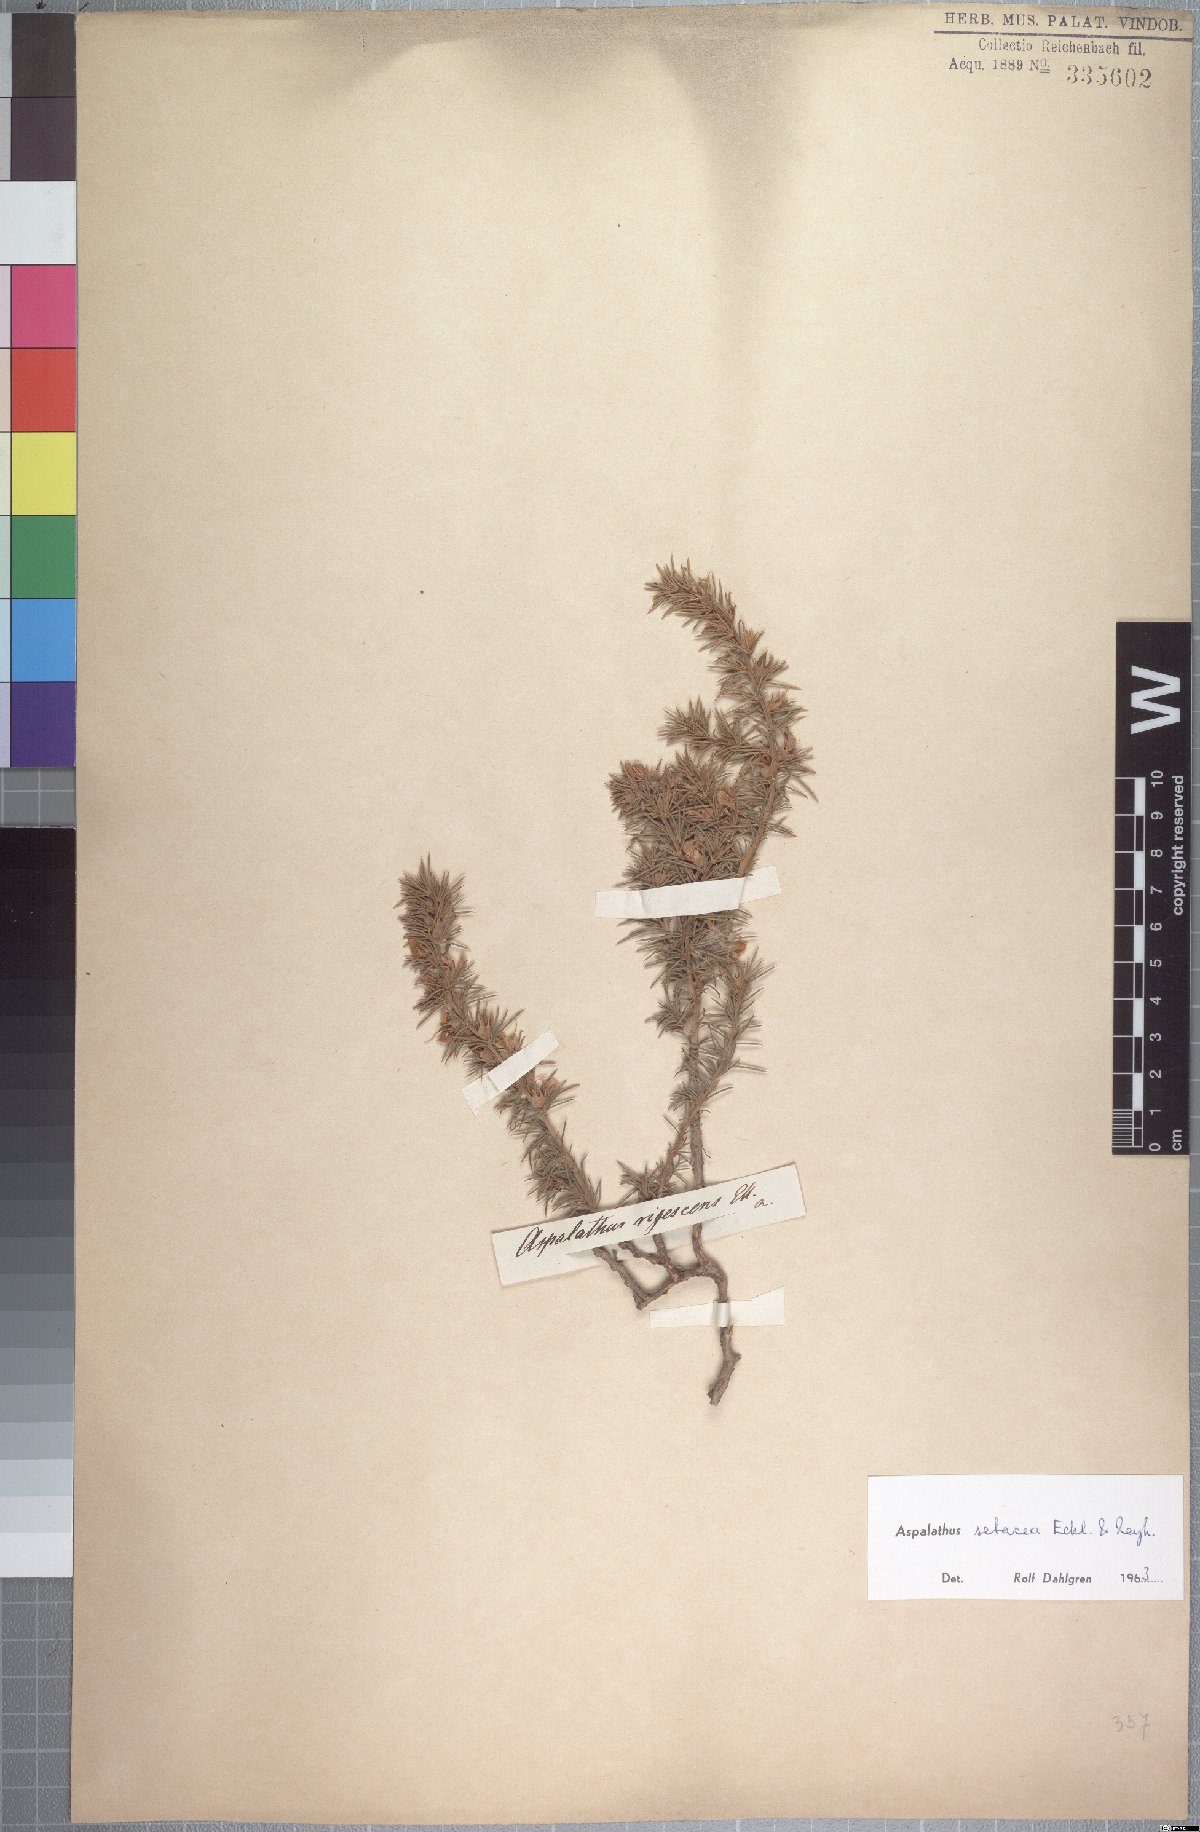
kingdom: Plantae
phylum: Tracheophyta
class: Magnoliopsida
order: Fabales
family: Fabaceae
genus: Aspalathus
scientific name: Aspalathus setacea
